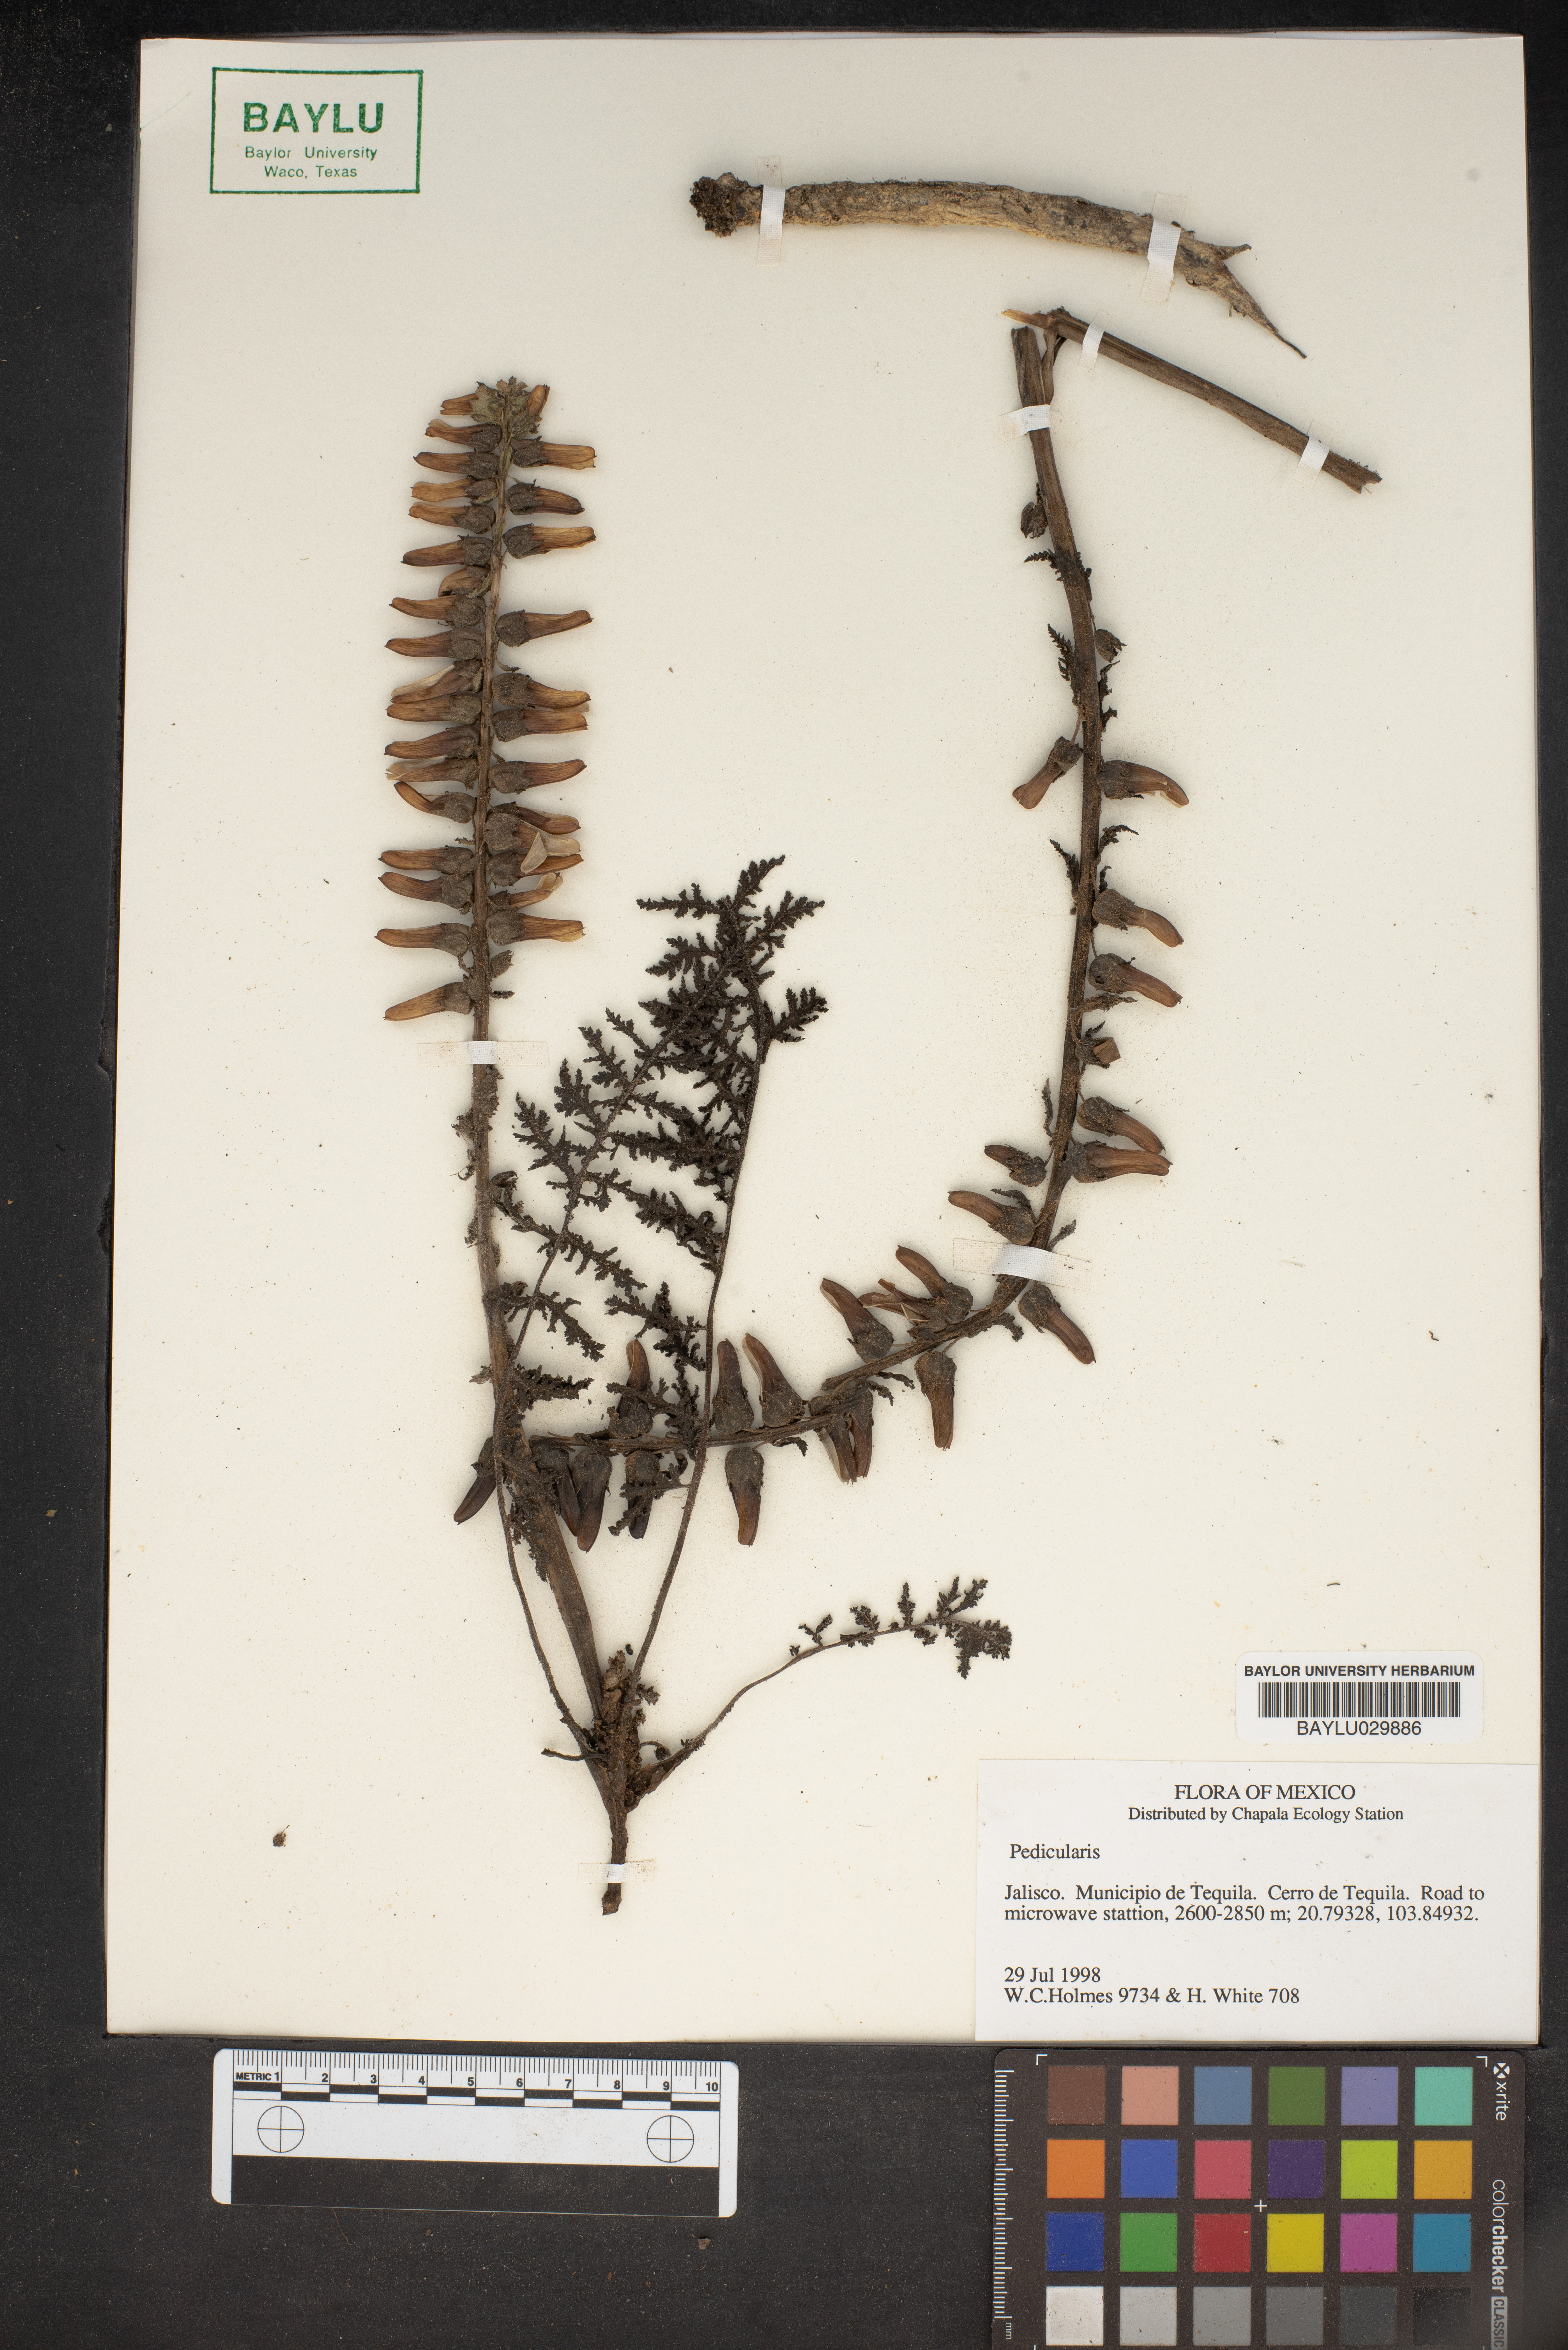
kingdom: Plantae
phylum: Tracheophyta
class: Magnoliopsida
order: Lamiales
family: Orobanchaceae
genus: Pedicularis
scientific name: Pedicularis
